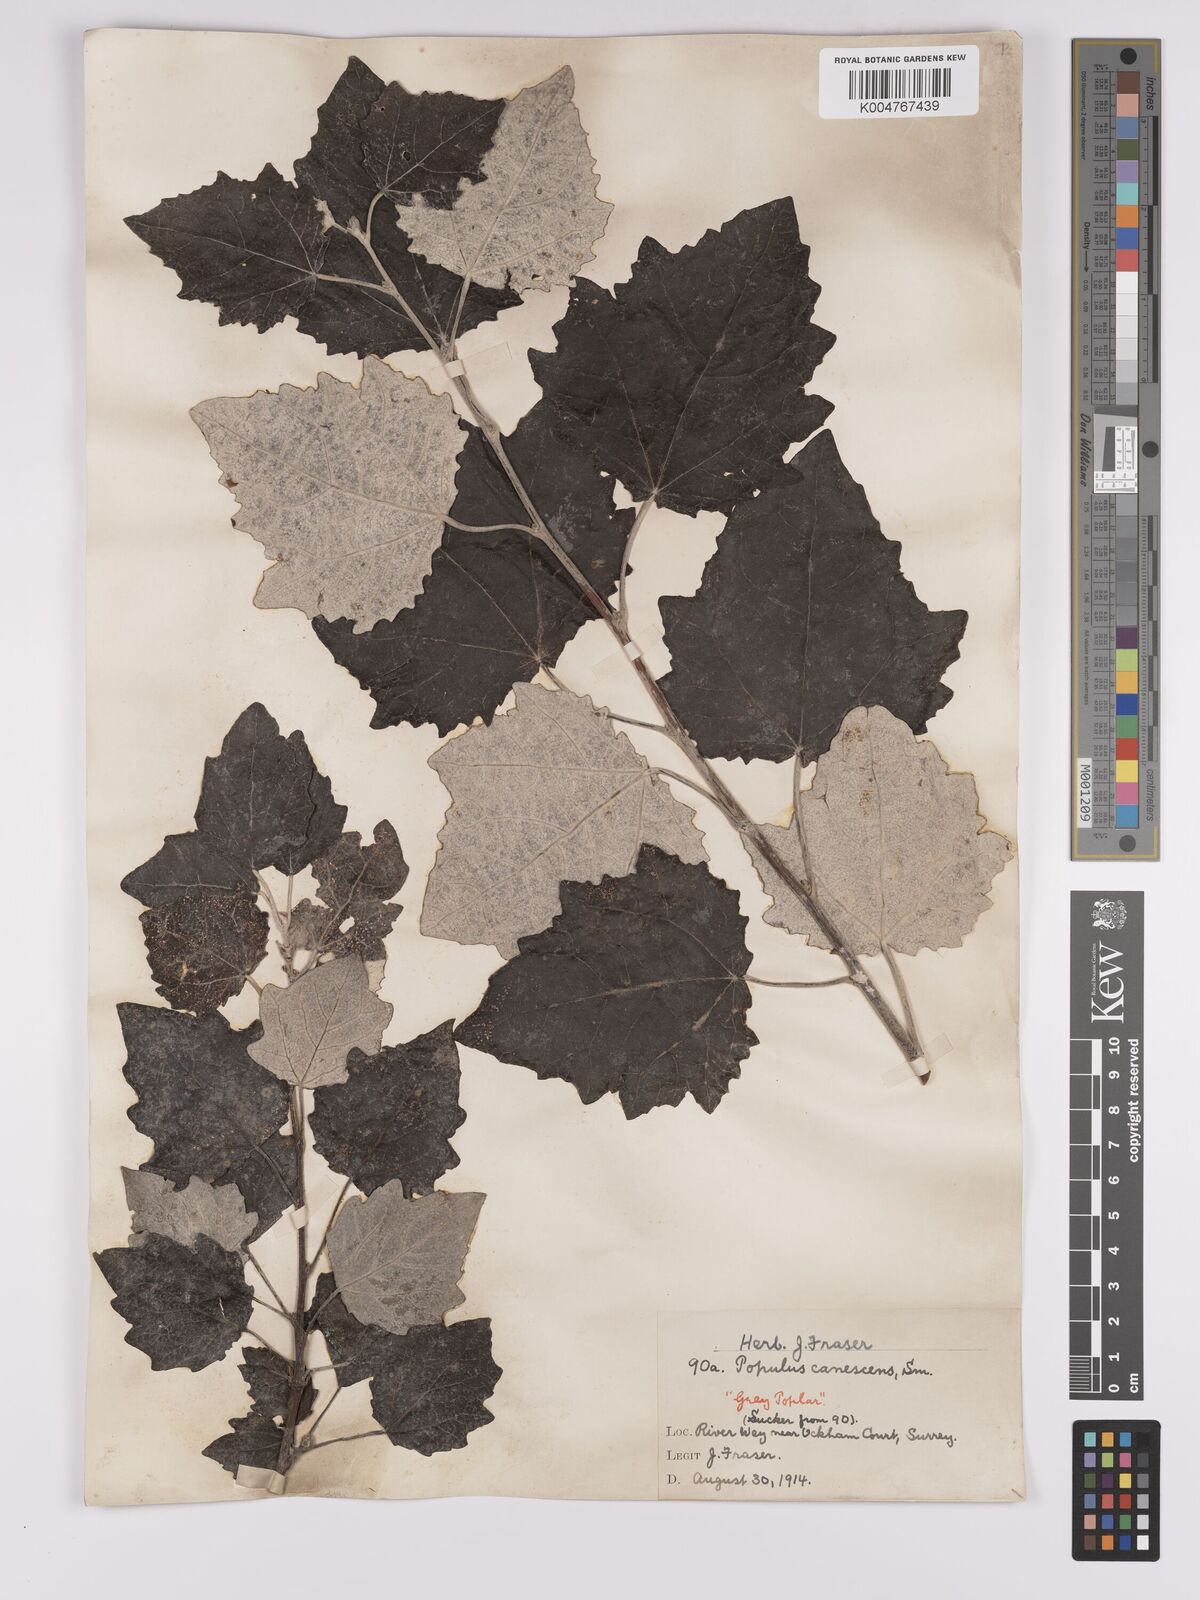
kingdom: Plantae
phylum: Tracheophyta
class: Magnoliopsida
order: Malpighiales
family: Salicaceae
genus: Populus
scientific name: Populus canescens
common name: Gray poplar
